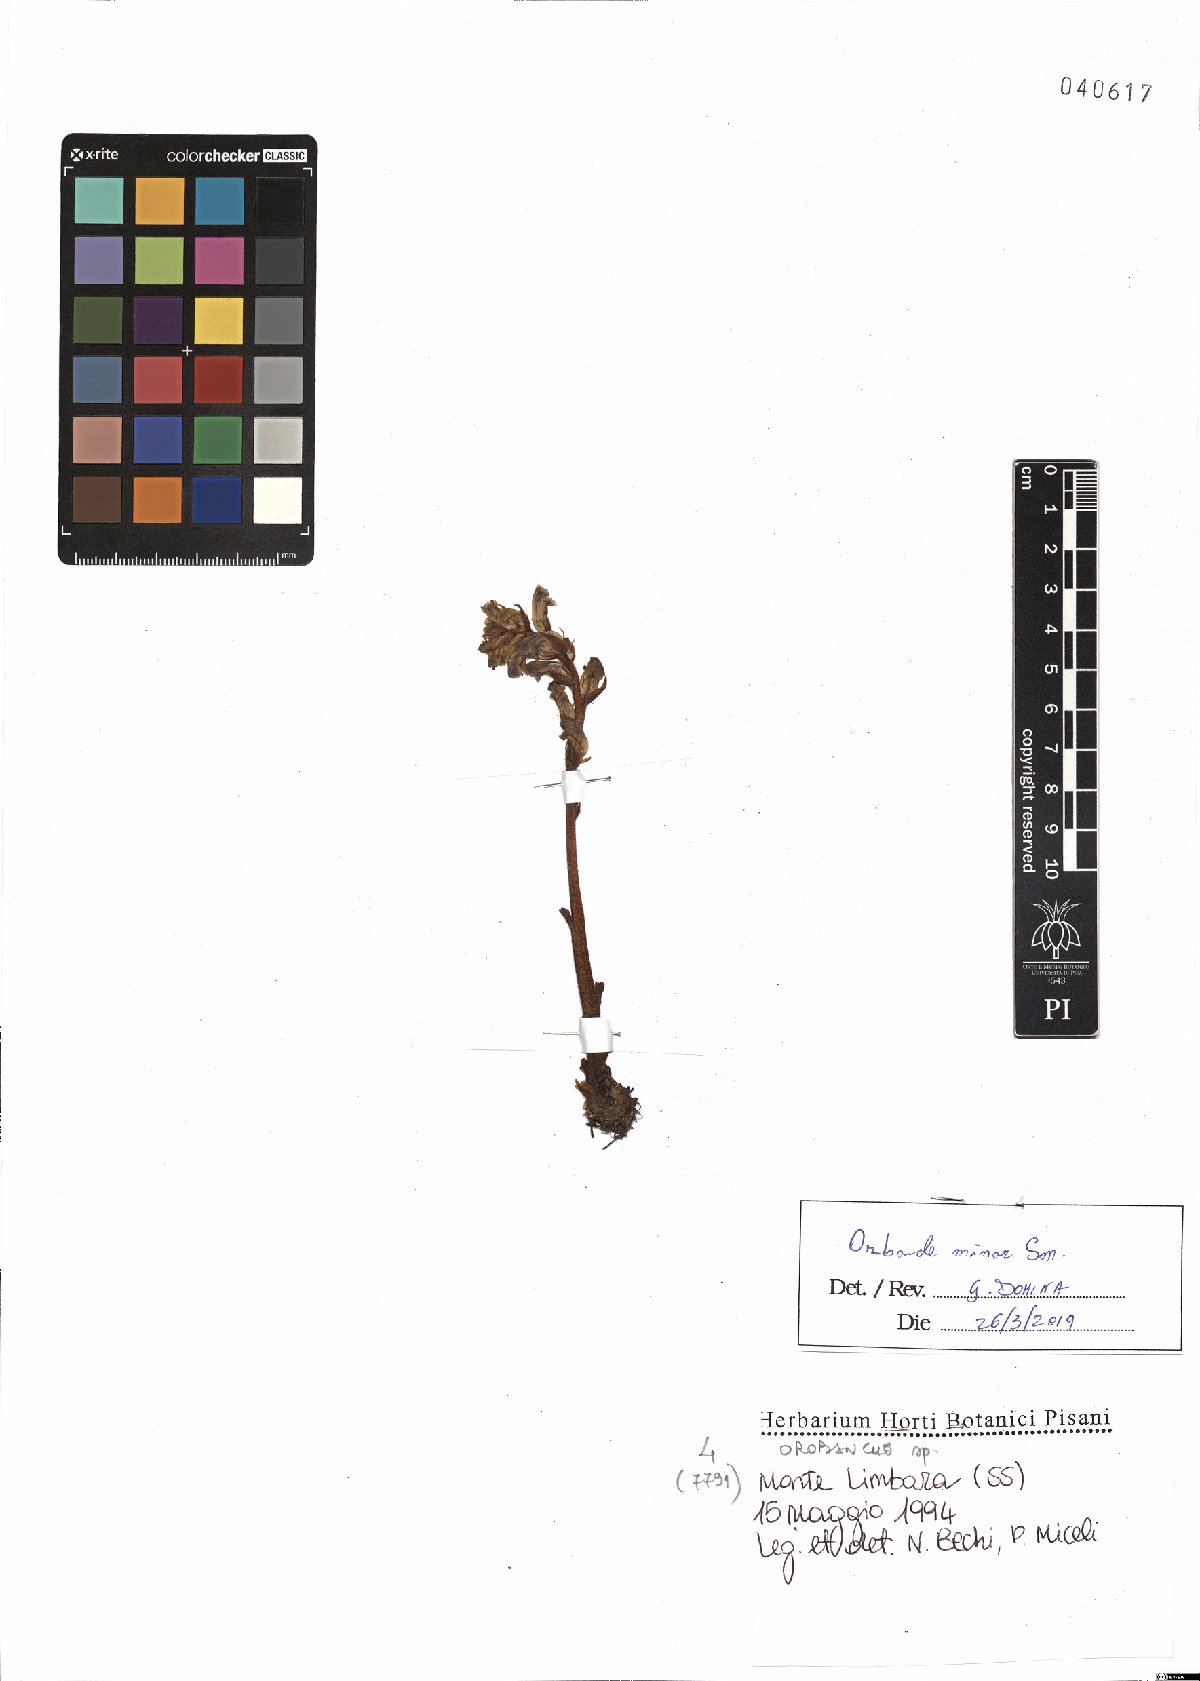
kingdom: Plantae
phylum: Tracheophyta
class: Magnoliopsida
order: Lamiales
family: Orobanchaceae
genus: Orobanche
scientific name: Orobanche minor
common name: Common broomrape
